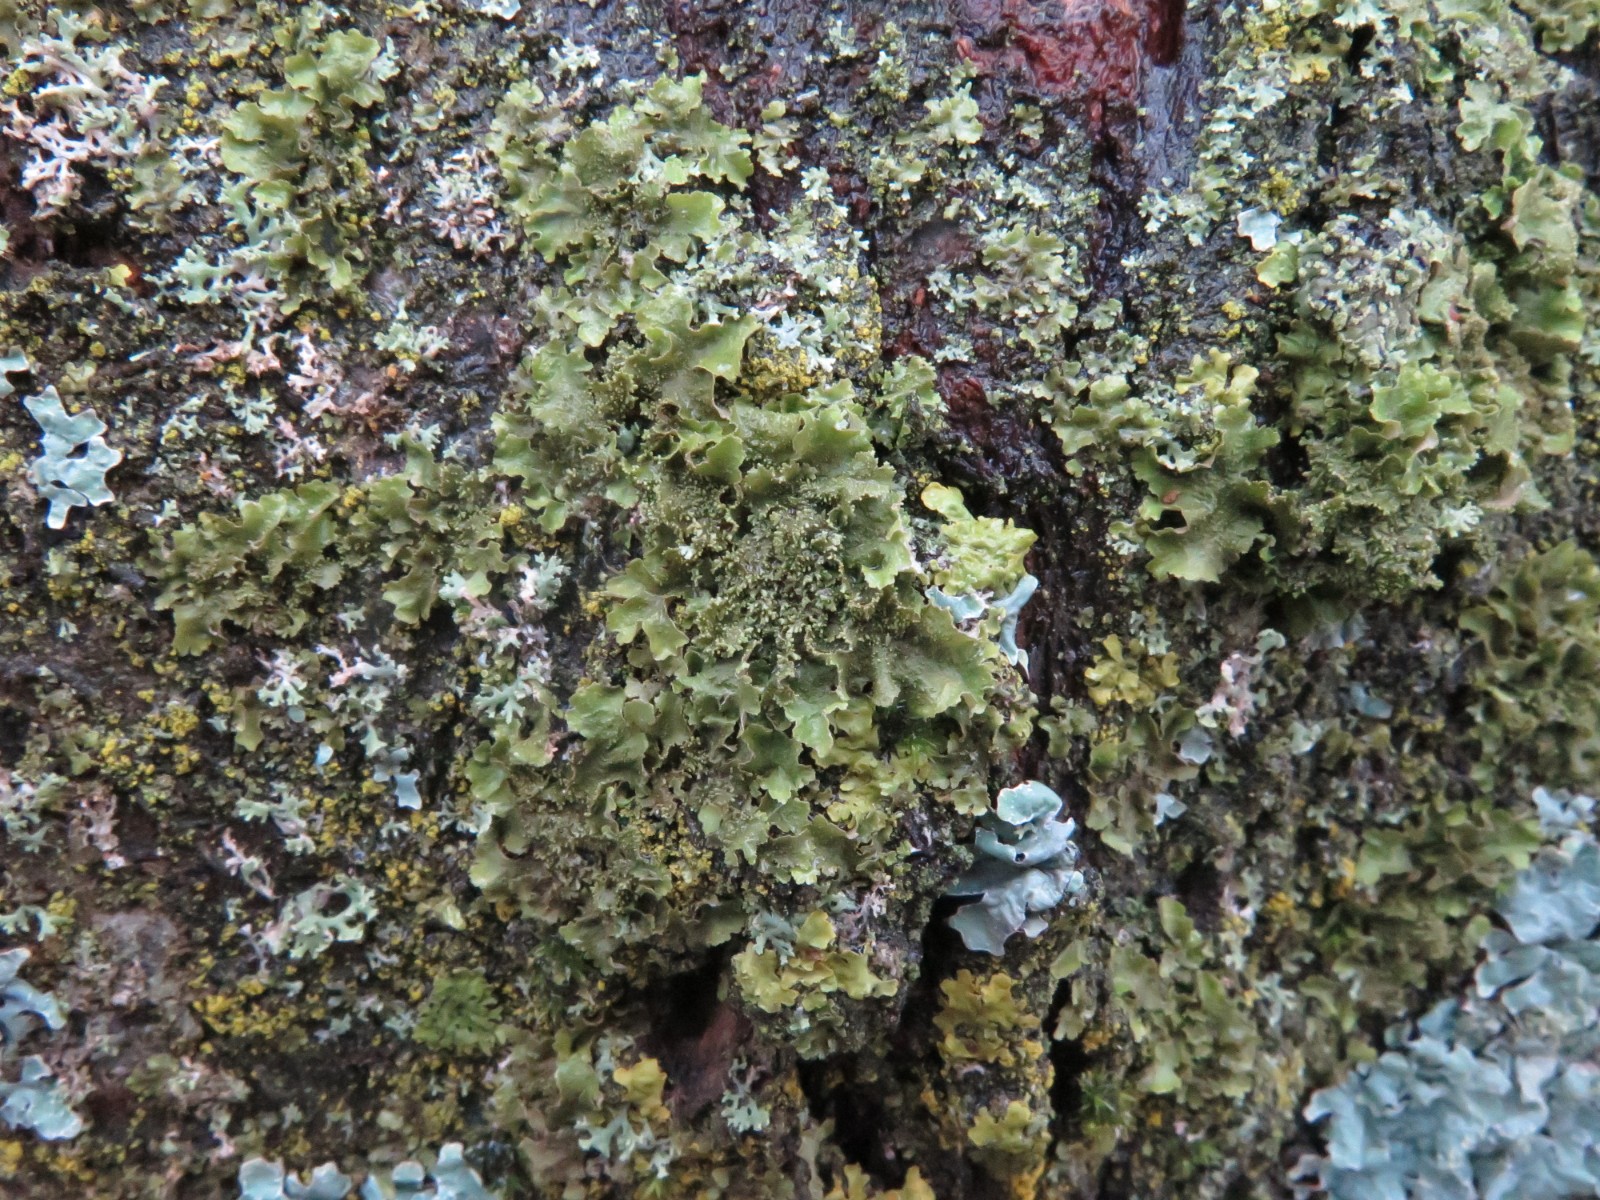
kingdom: Fungi
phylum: Ascomycota
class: Lecanoromycetes
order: Lecanorales
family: Parmeliaceae
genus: Melanohalea
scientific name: Melanohalea exasperatula
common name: kølle-skållav
